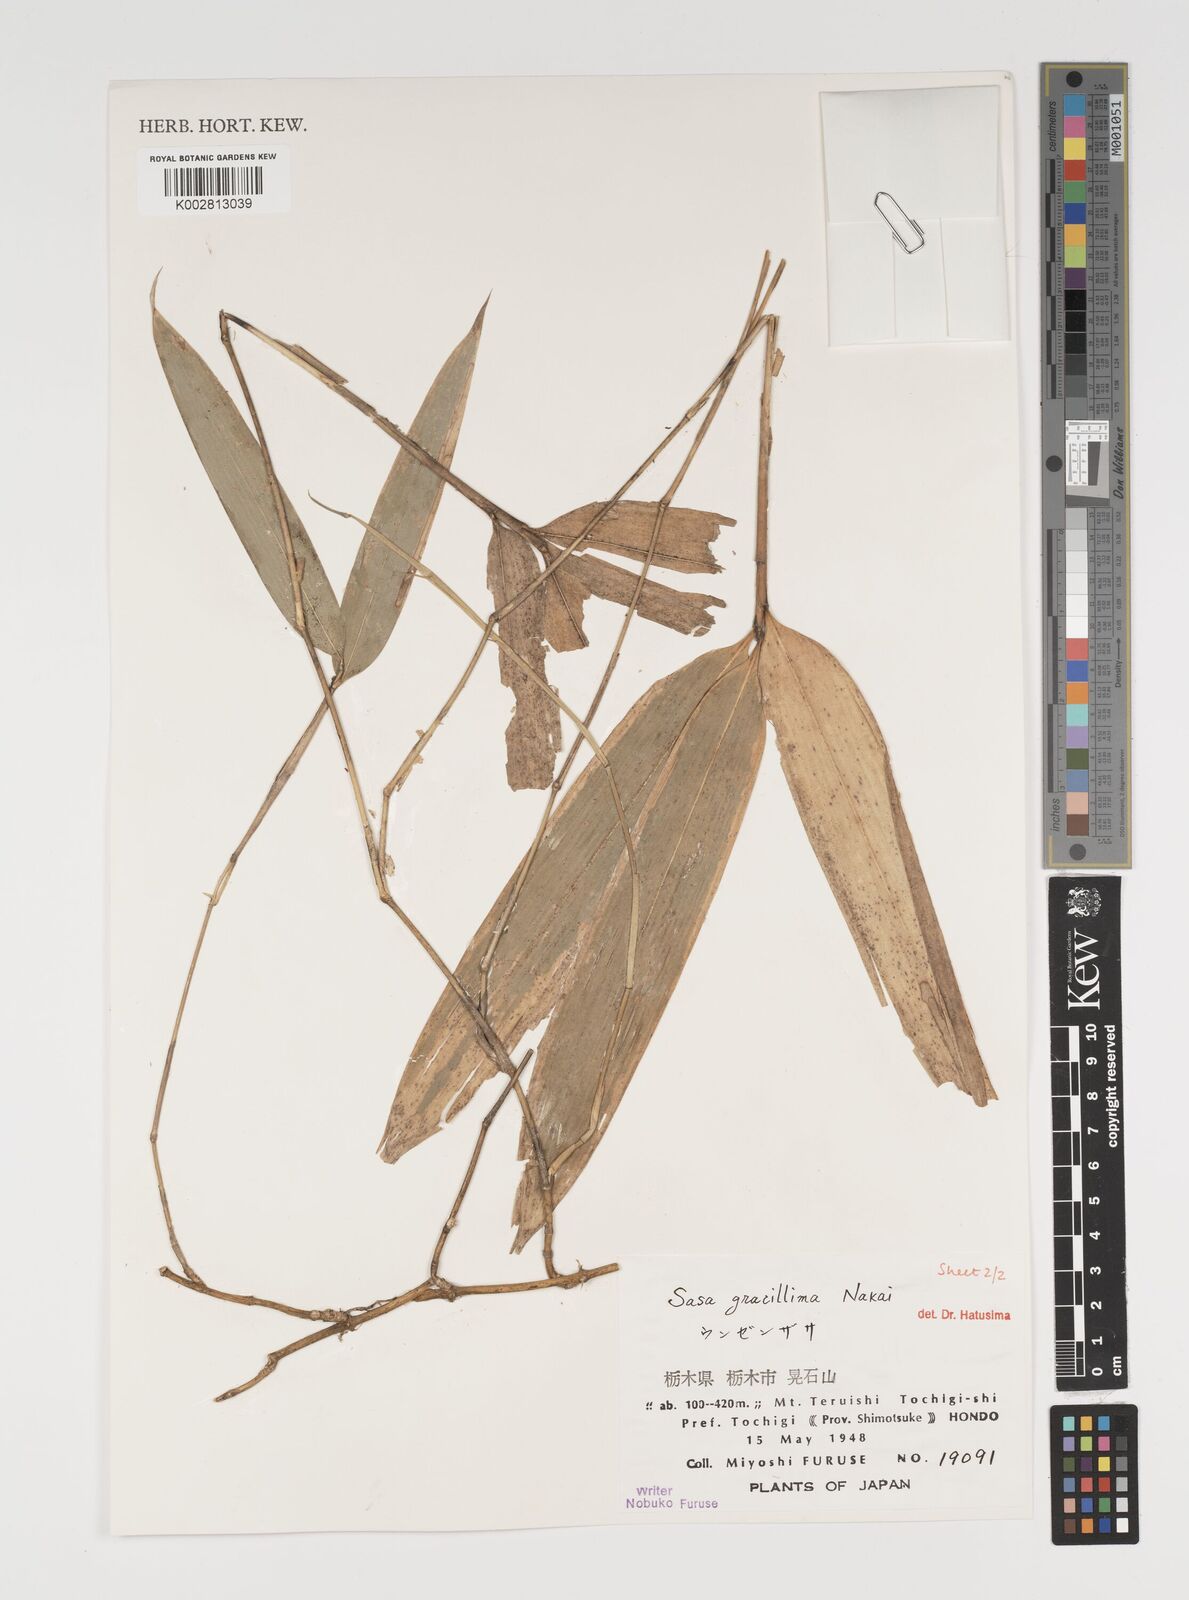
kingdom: Plantae
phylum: Tracheophyta
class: Liliopsida
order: Poales
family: Poaceae
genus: Sasa
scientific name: Sasa gracillima
